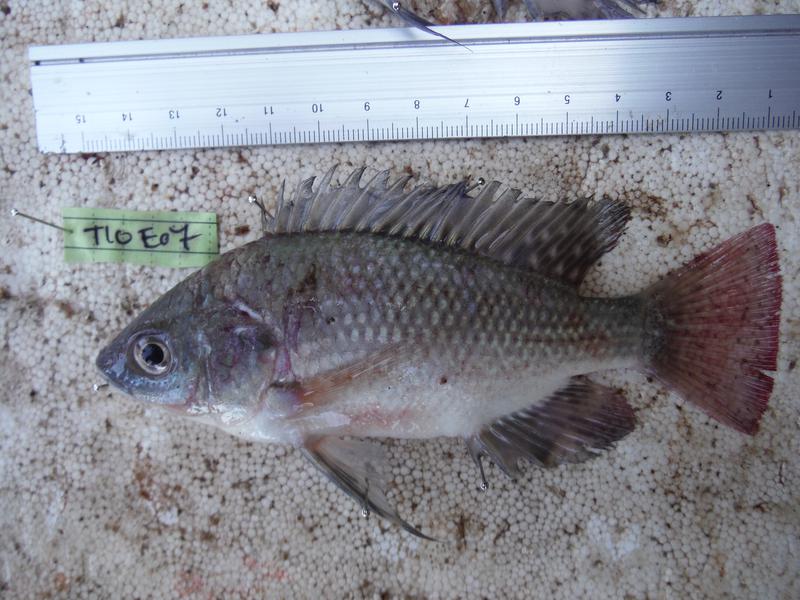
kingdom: Animalia
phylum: Chordata
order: Perciformes
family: Cichlidae
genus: Oreochromis
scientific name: Oreochromis esculentus
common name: Carp
